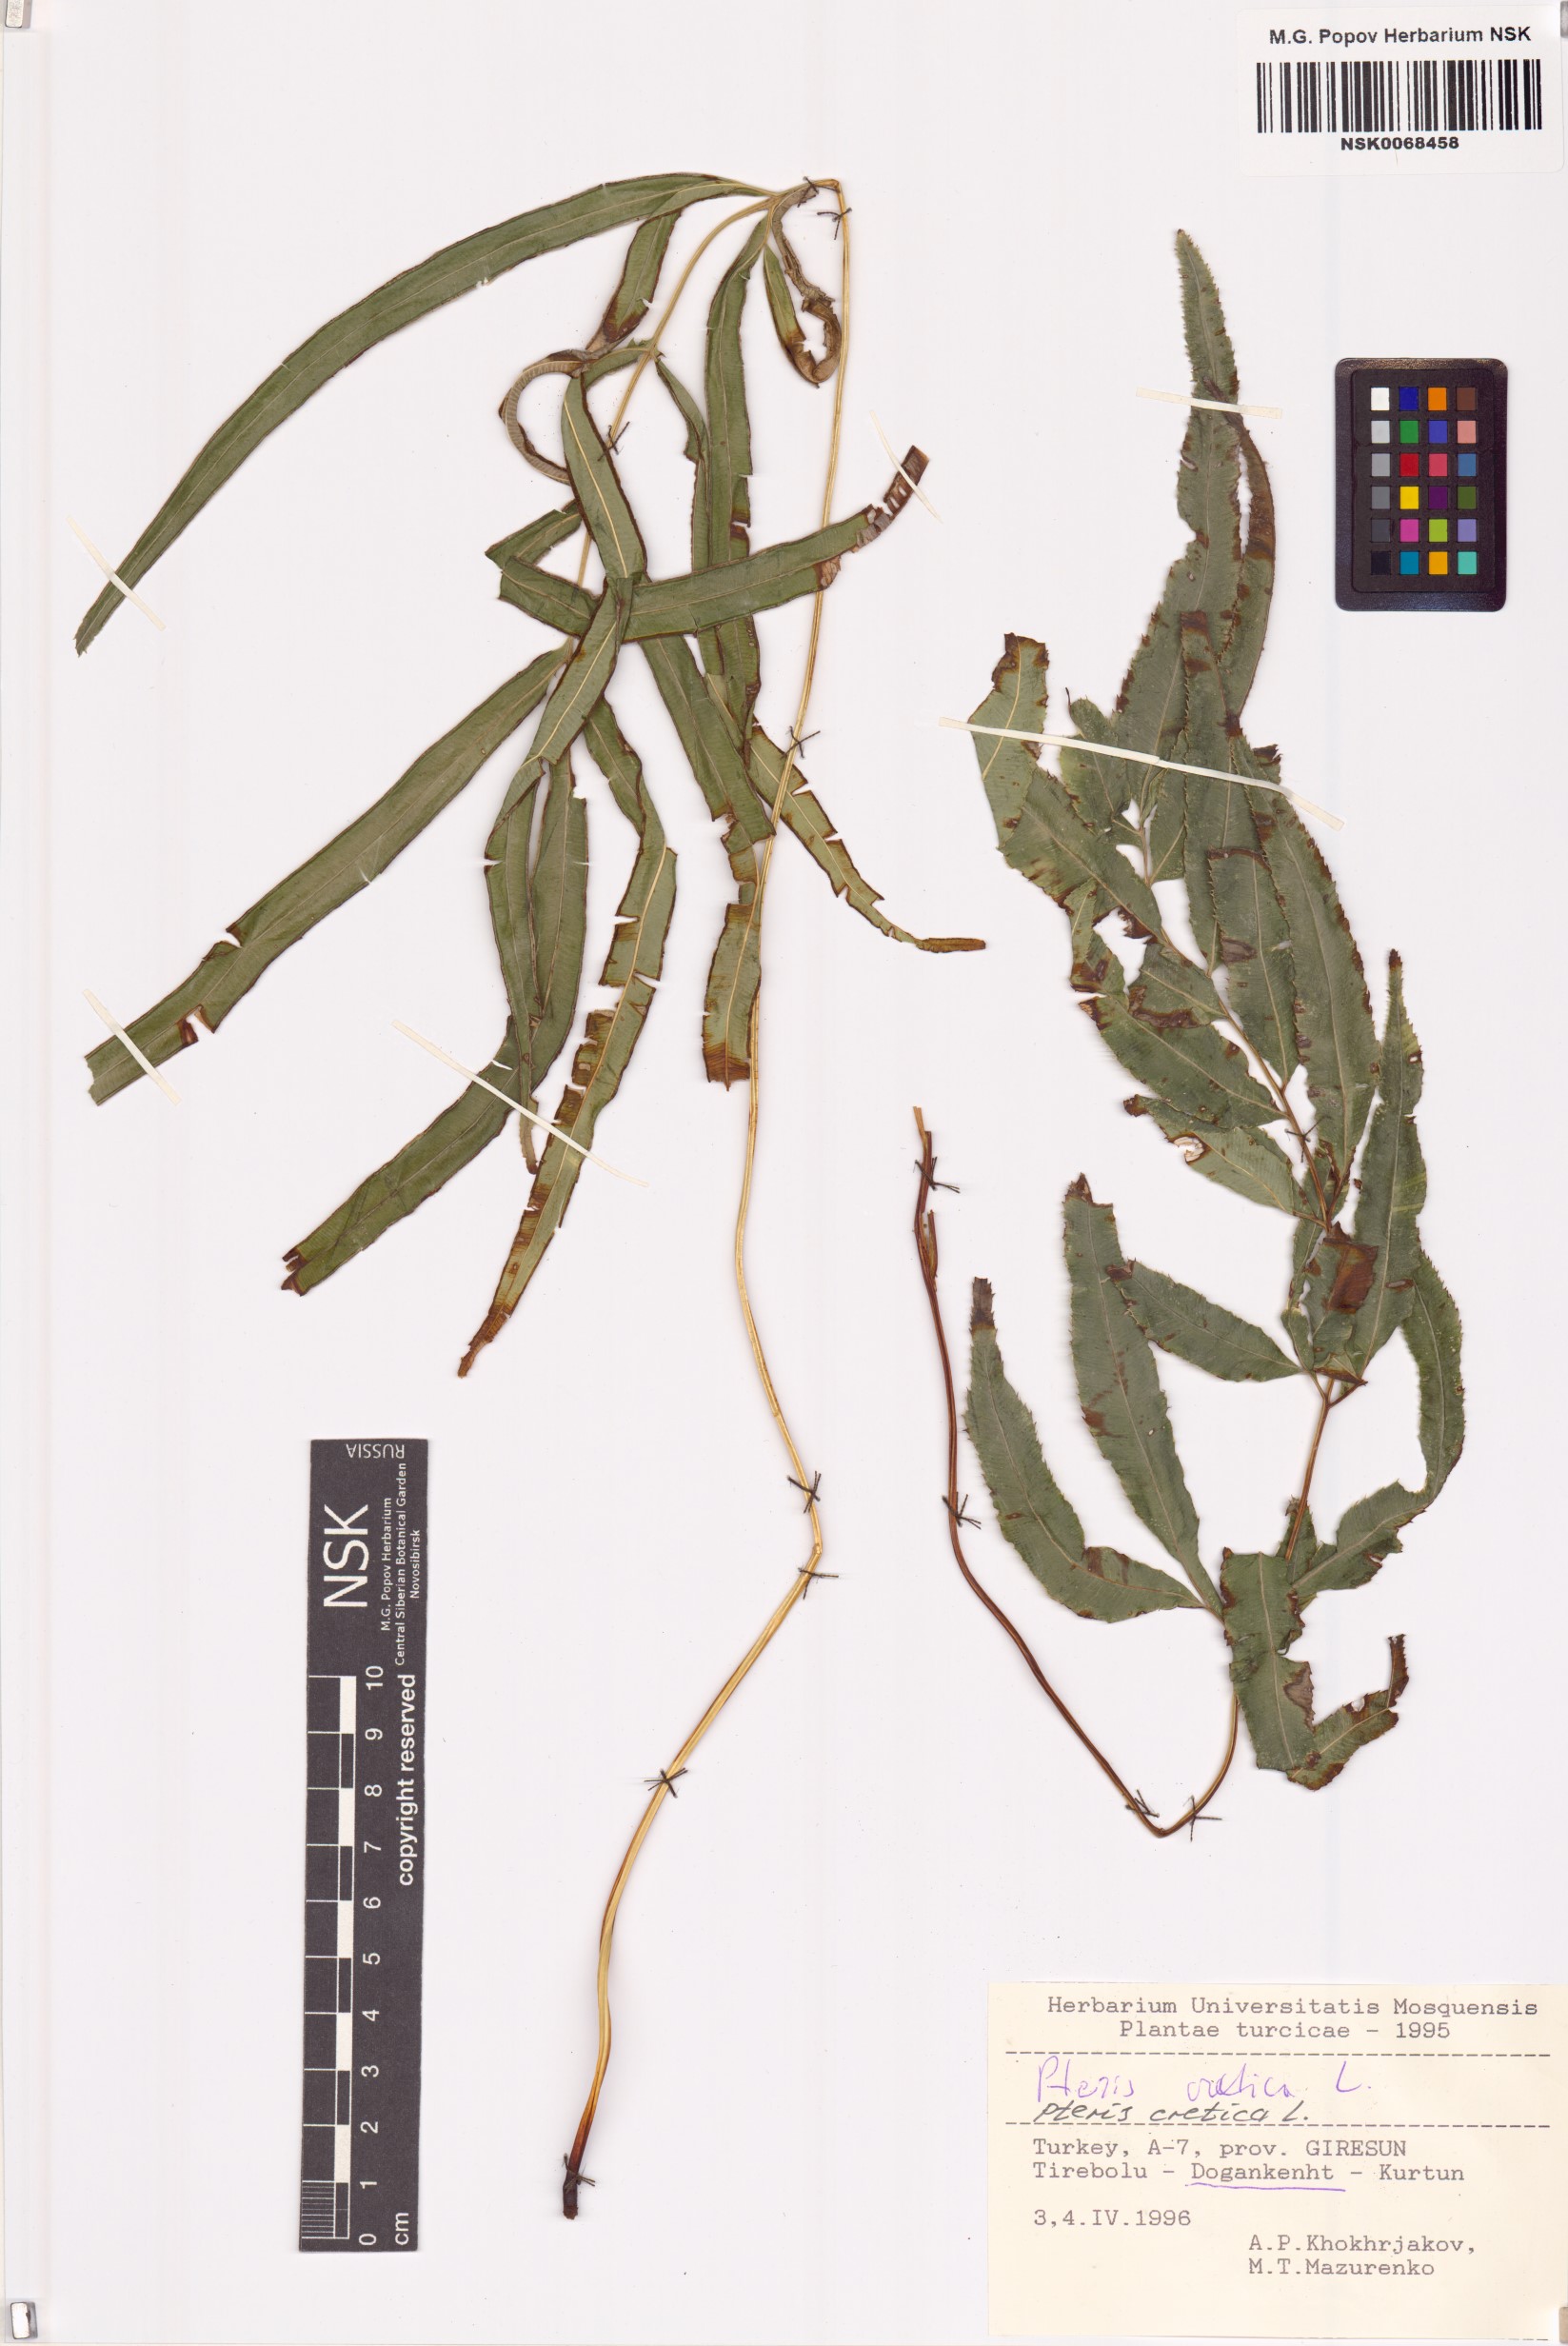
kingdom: Plantae
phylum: Tracheophyta
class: Polypodiopsida
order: Polypodiales
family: Pteridaceae
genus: Pteris
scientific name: Pteris cretica
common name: Ribbon fern
